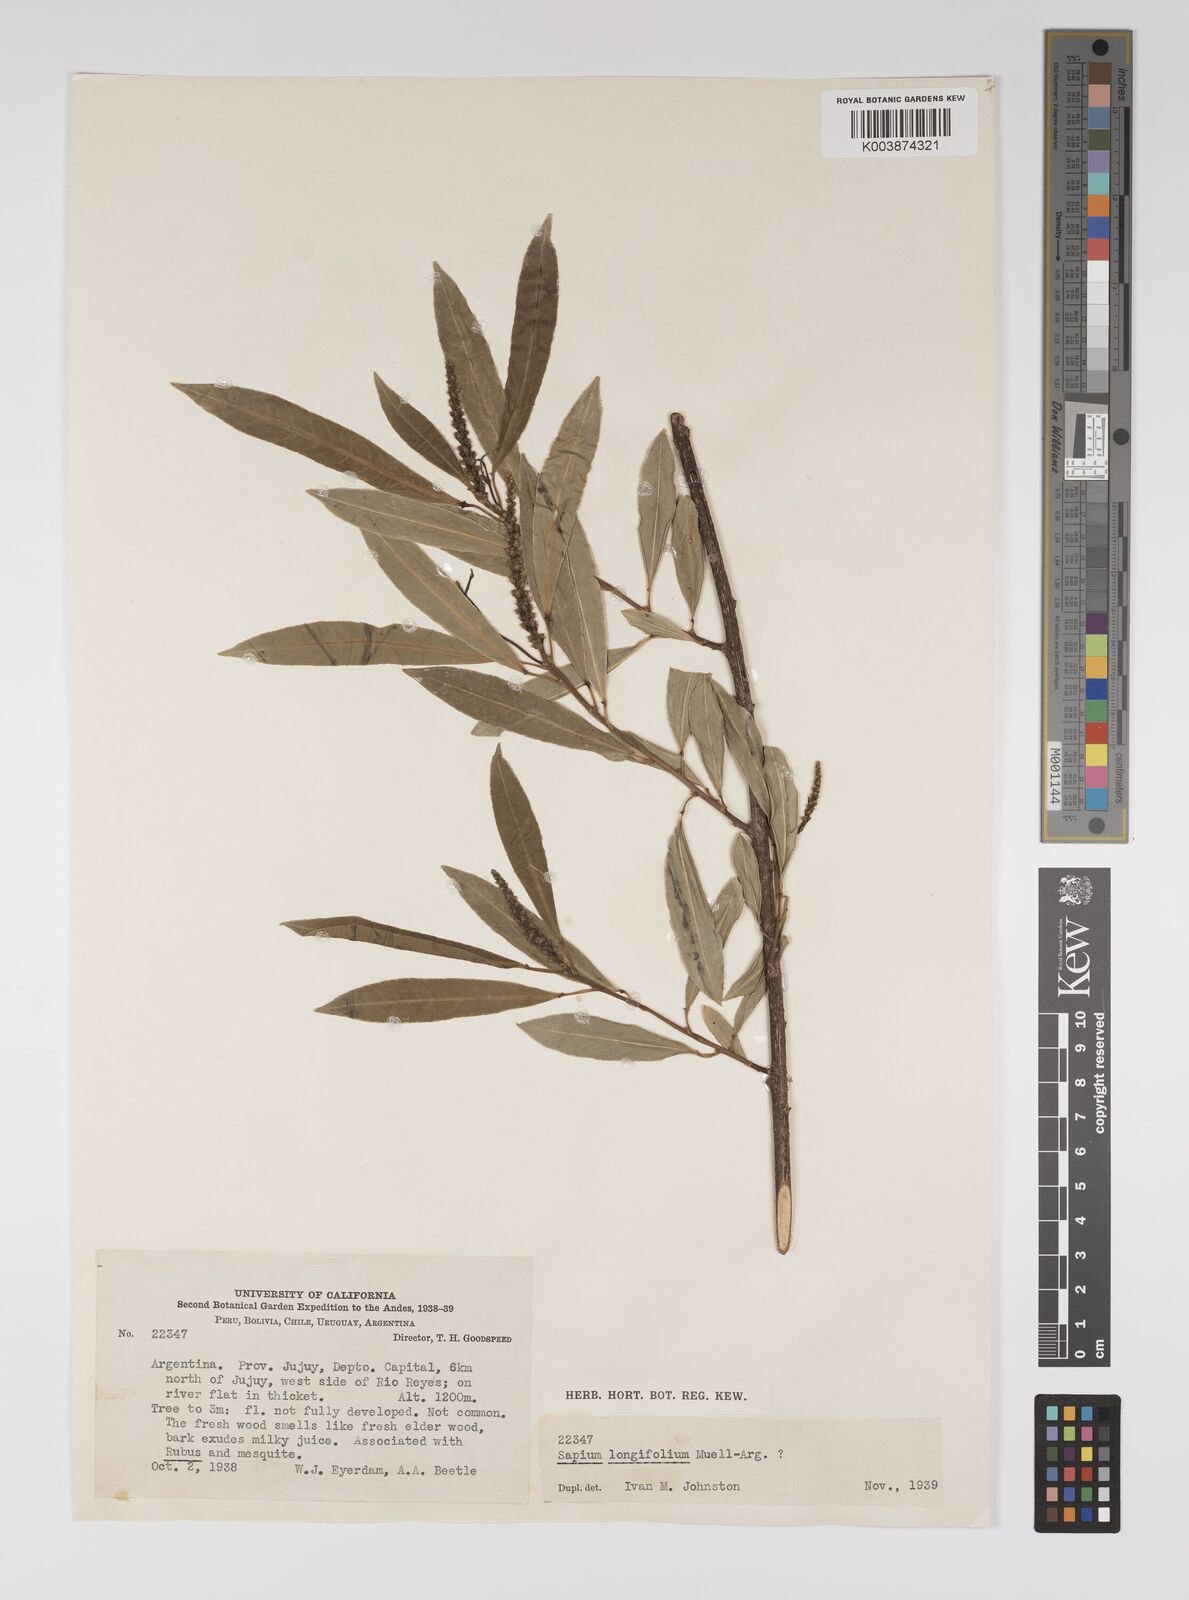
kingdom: Plantae
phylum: Tracheophyta
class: Magnoliopsida
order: Malpighiales
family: Euphorbiaceae
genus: Sapium
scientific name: Sapium haematospermum
